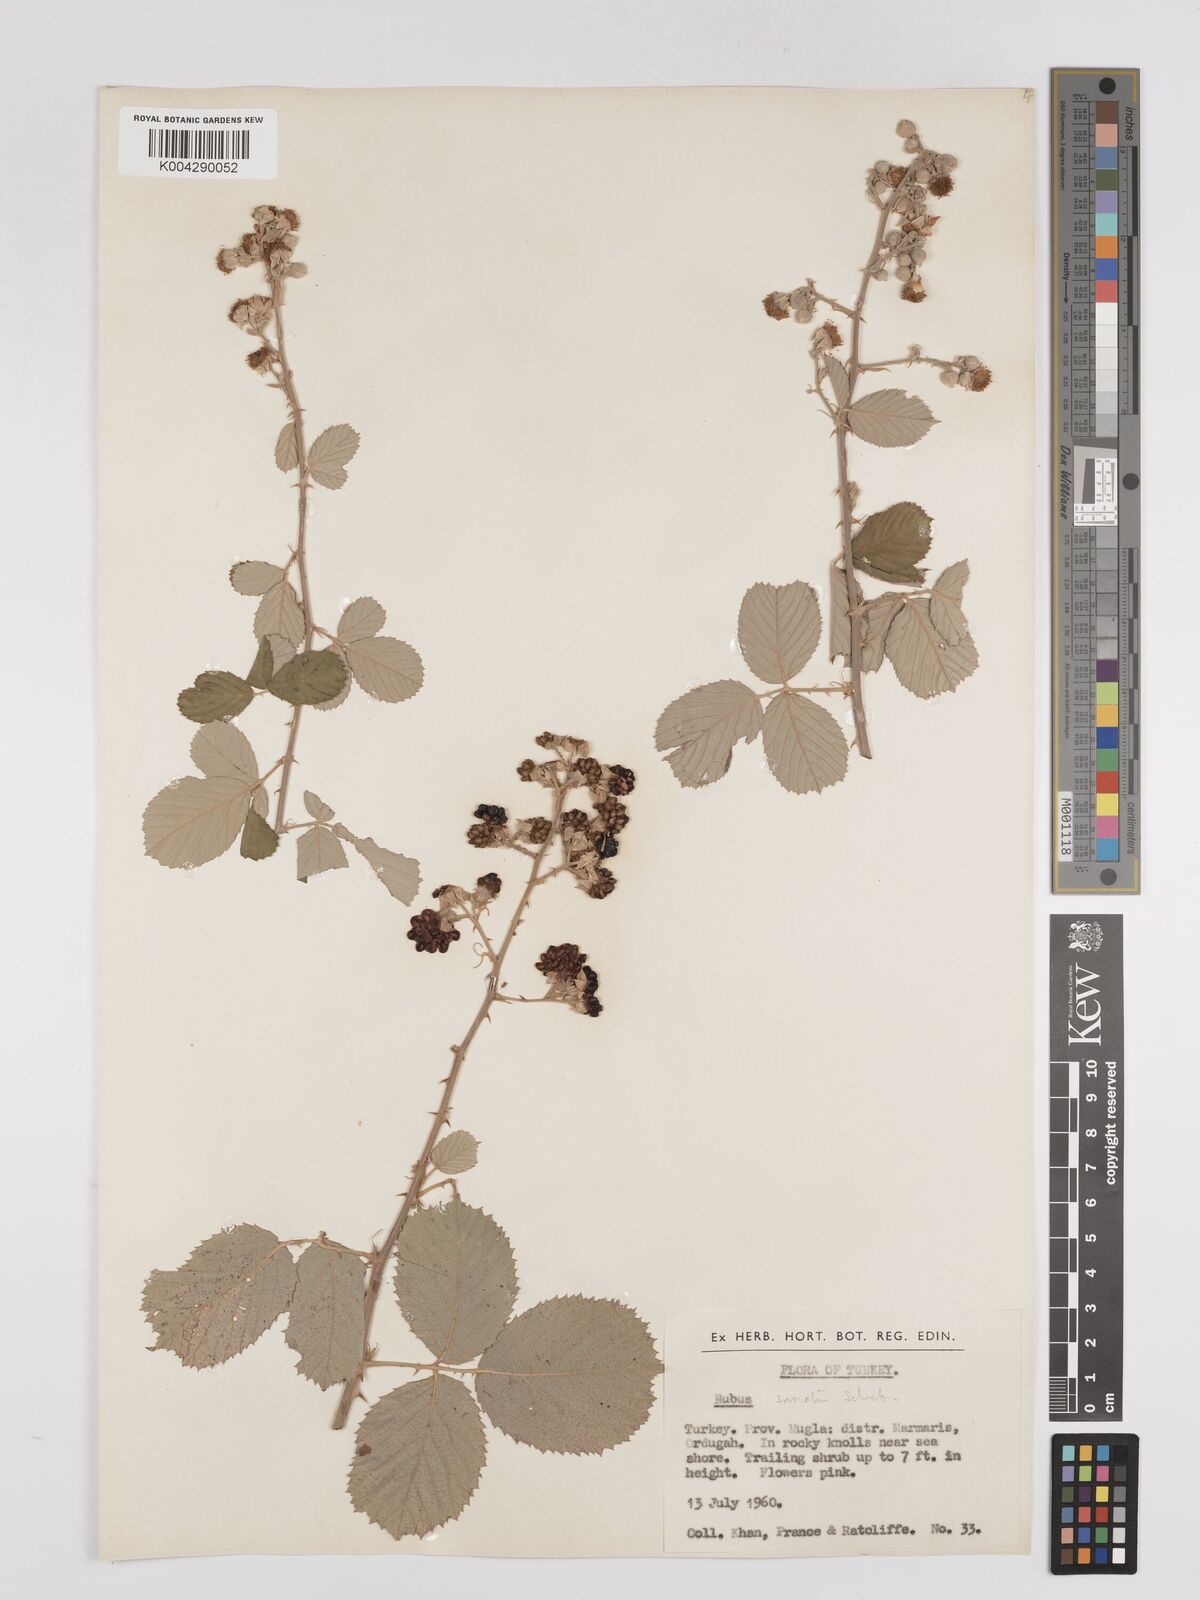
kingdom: Plantae
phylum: Tracheophyta
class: Magnoliopsida
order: Rosales
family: Rosaceae
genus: Rubus
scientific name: Rubus sanctus
